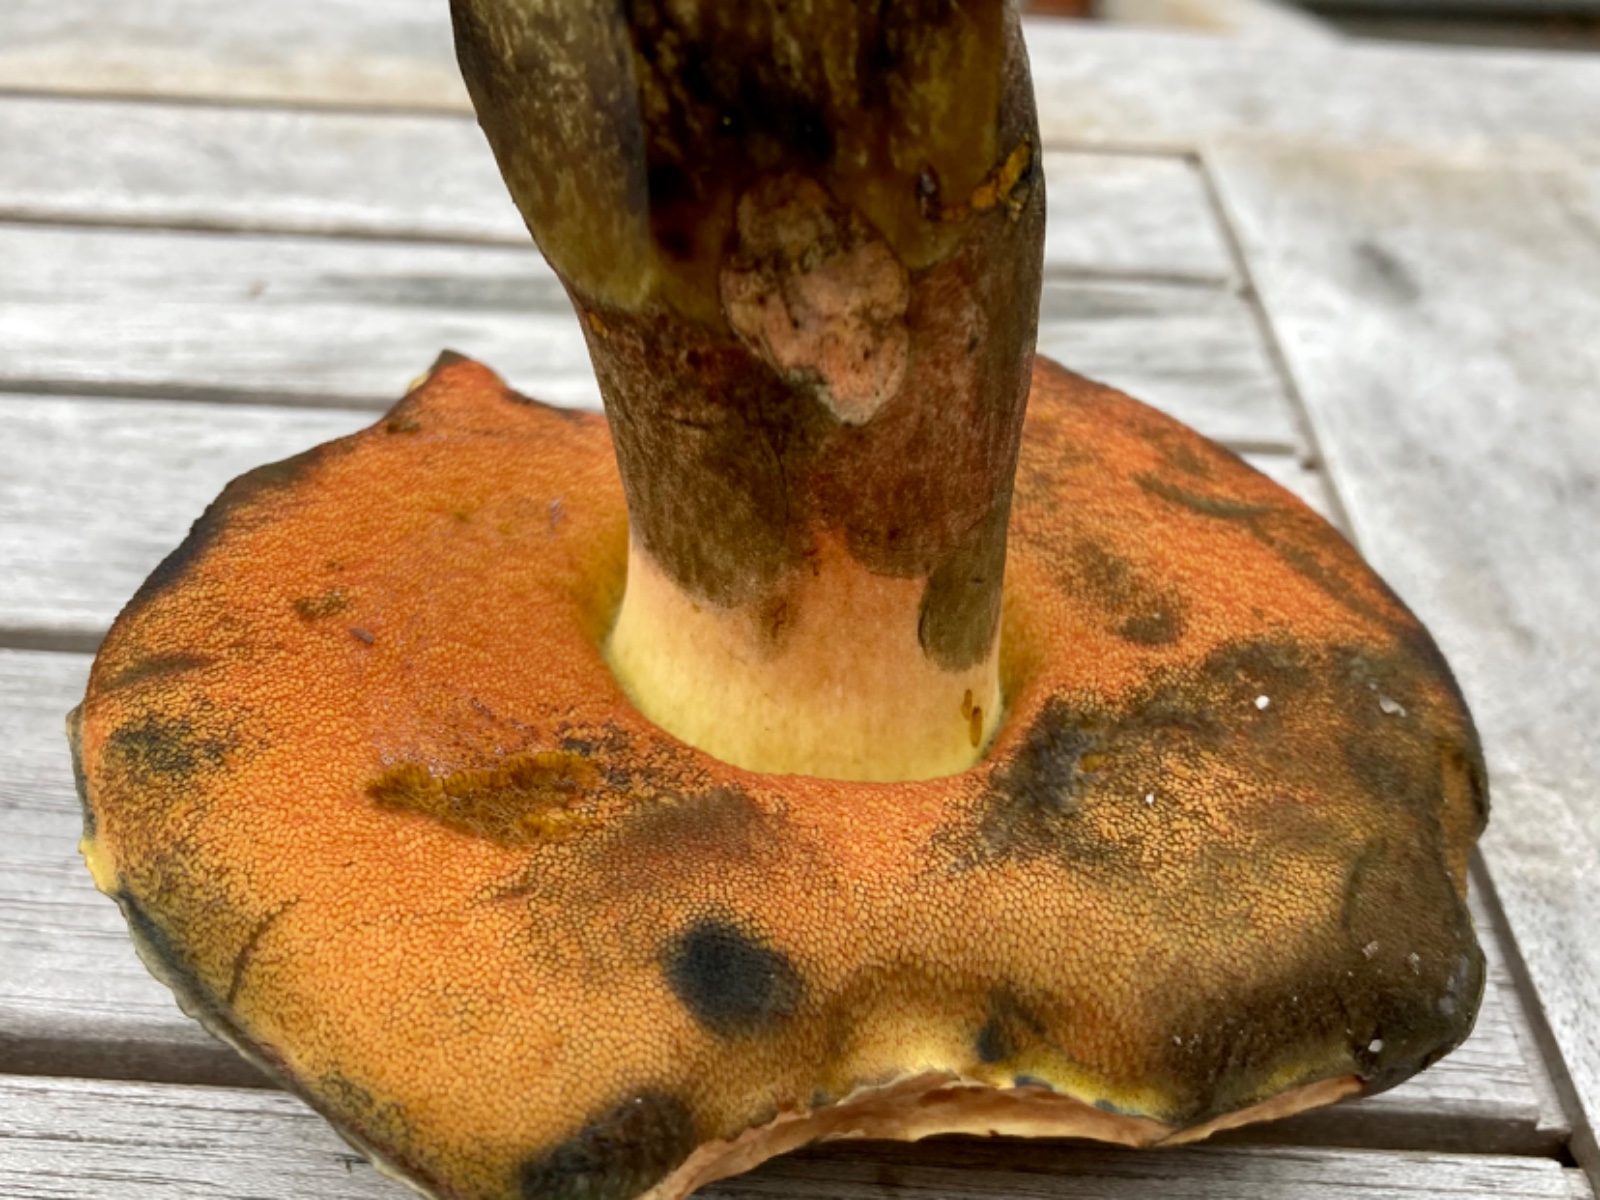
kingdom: Fungi
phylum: Basidiomycota
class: Agaricomycetes
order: Boletales
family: Boletaceae
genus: Neoboletus
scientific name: Neoboletus xanthopus
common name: finprikket indigorørhat
